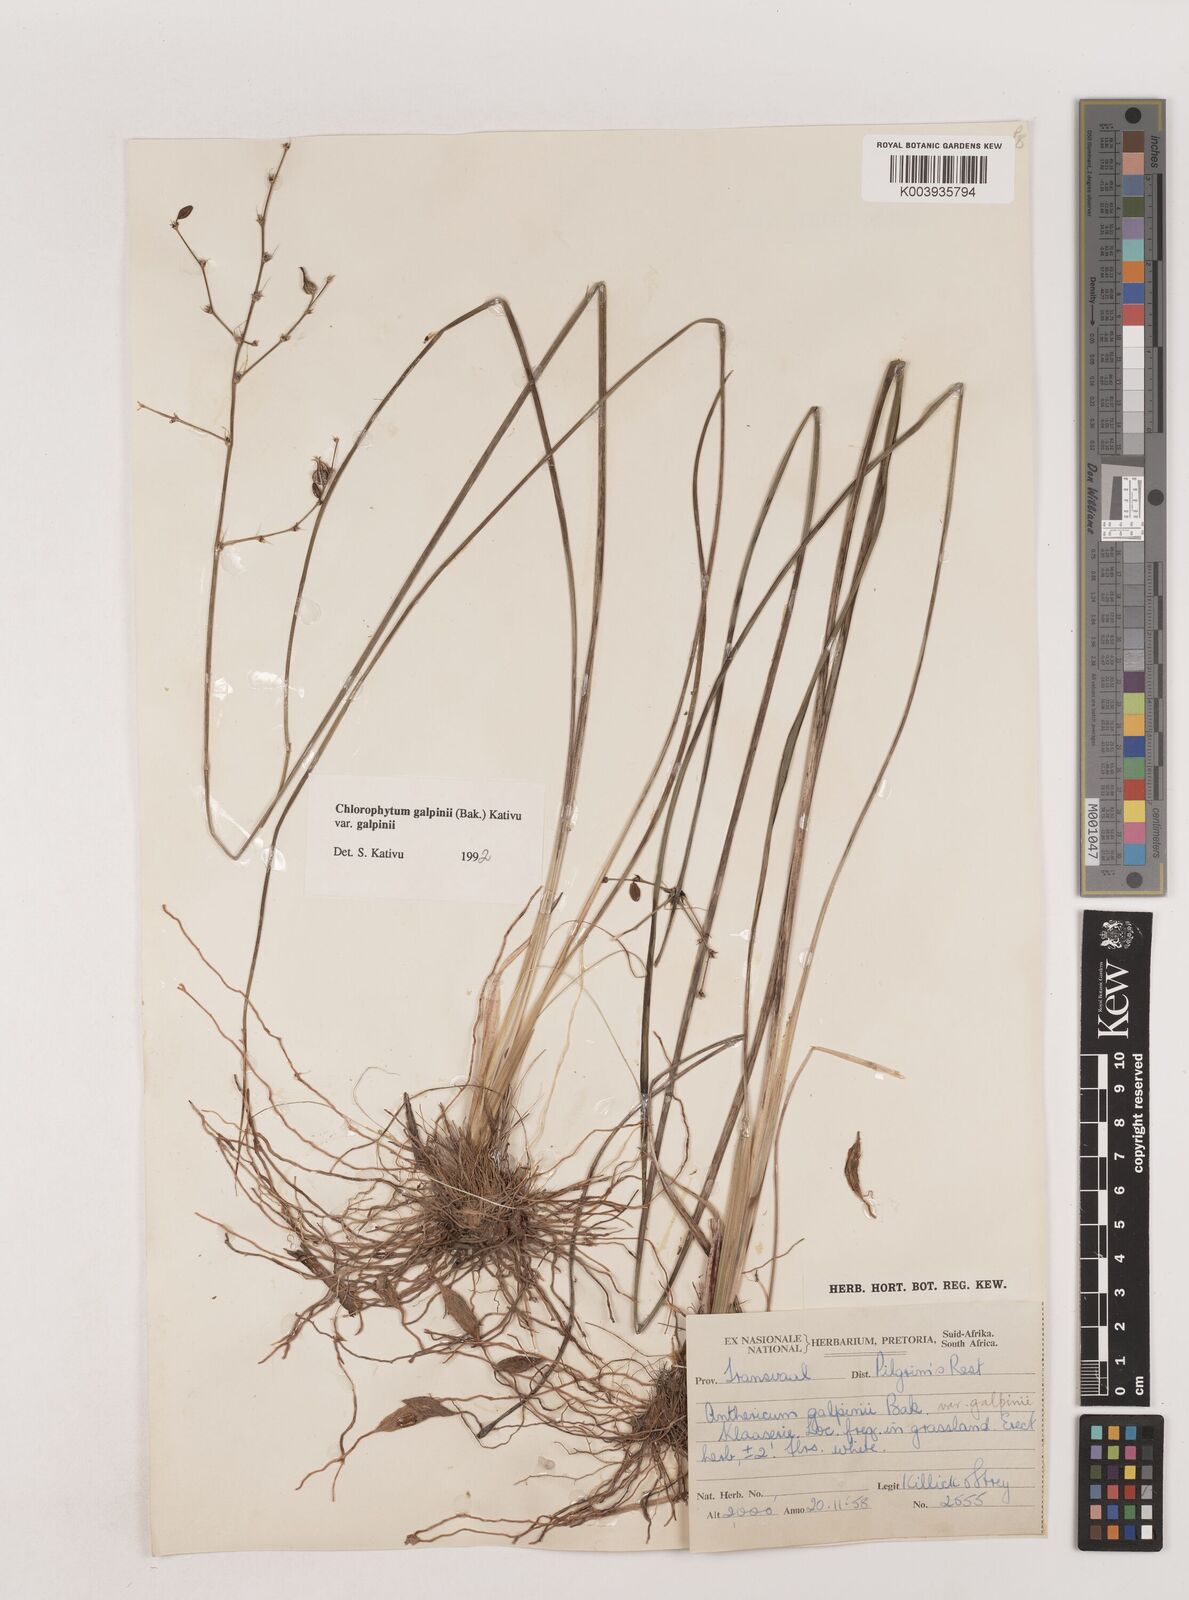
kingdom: Plantae
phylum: Tracheophyta
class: Liliopsida
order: Asparagales
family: Asparagaceae
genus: Chlorophytum
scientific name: Chlorophytum galpinii
